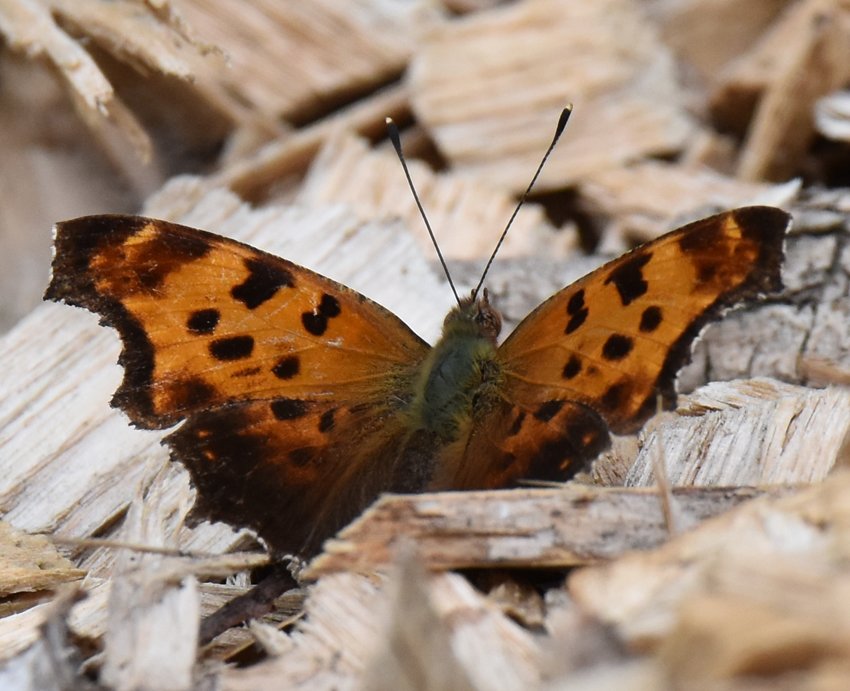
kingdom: Animalia
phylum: Arthropoda
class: Insecta
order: Lepidoptera
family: Nymphalidae
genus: Polygonia
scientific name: Polygonia comma
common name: Eastern Comma
